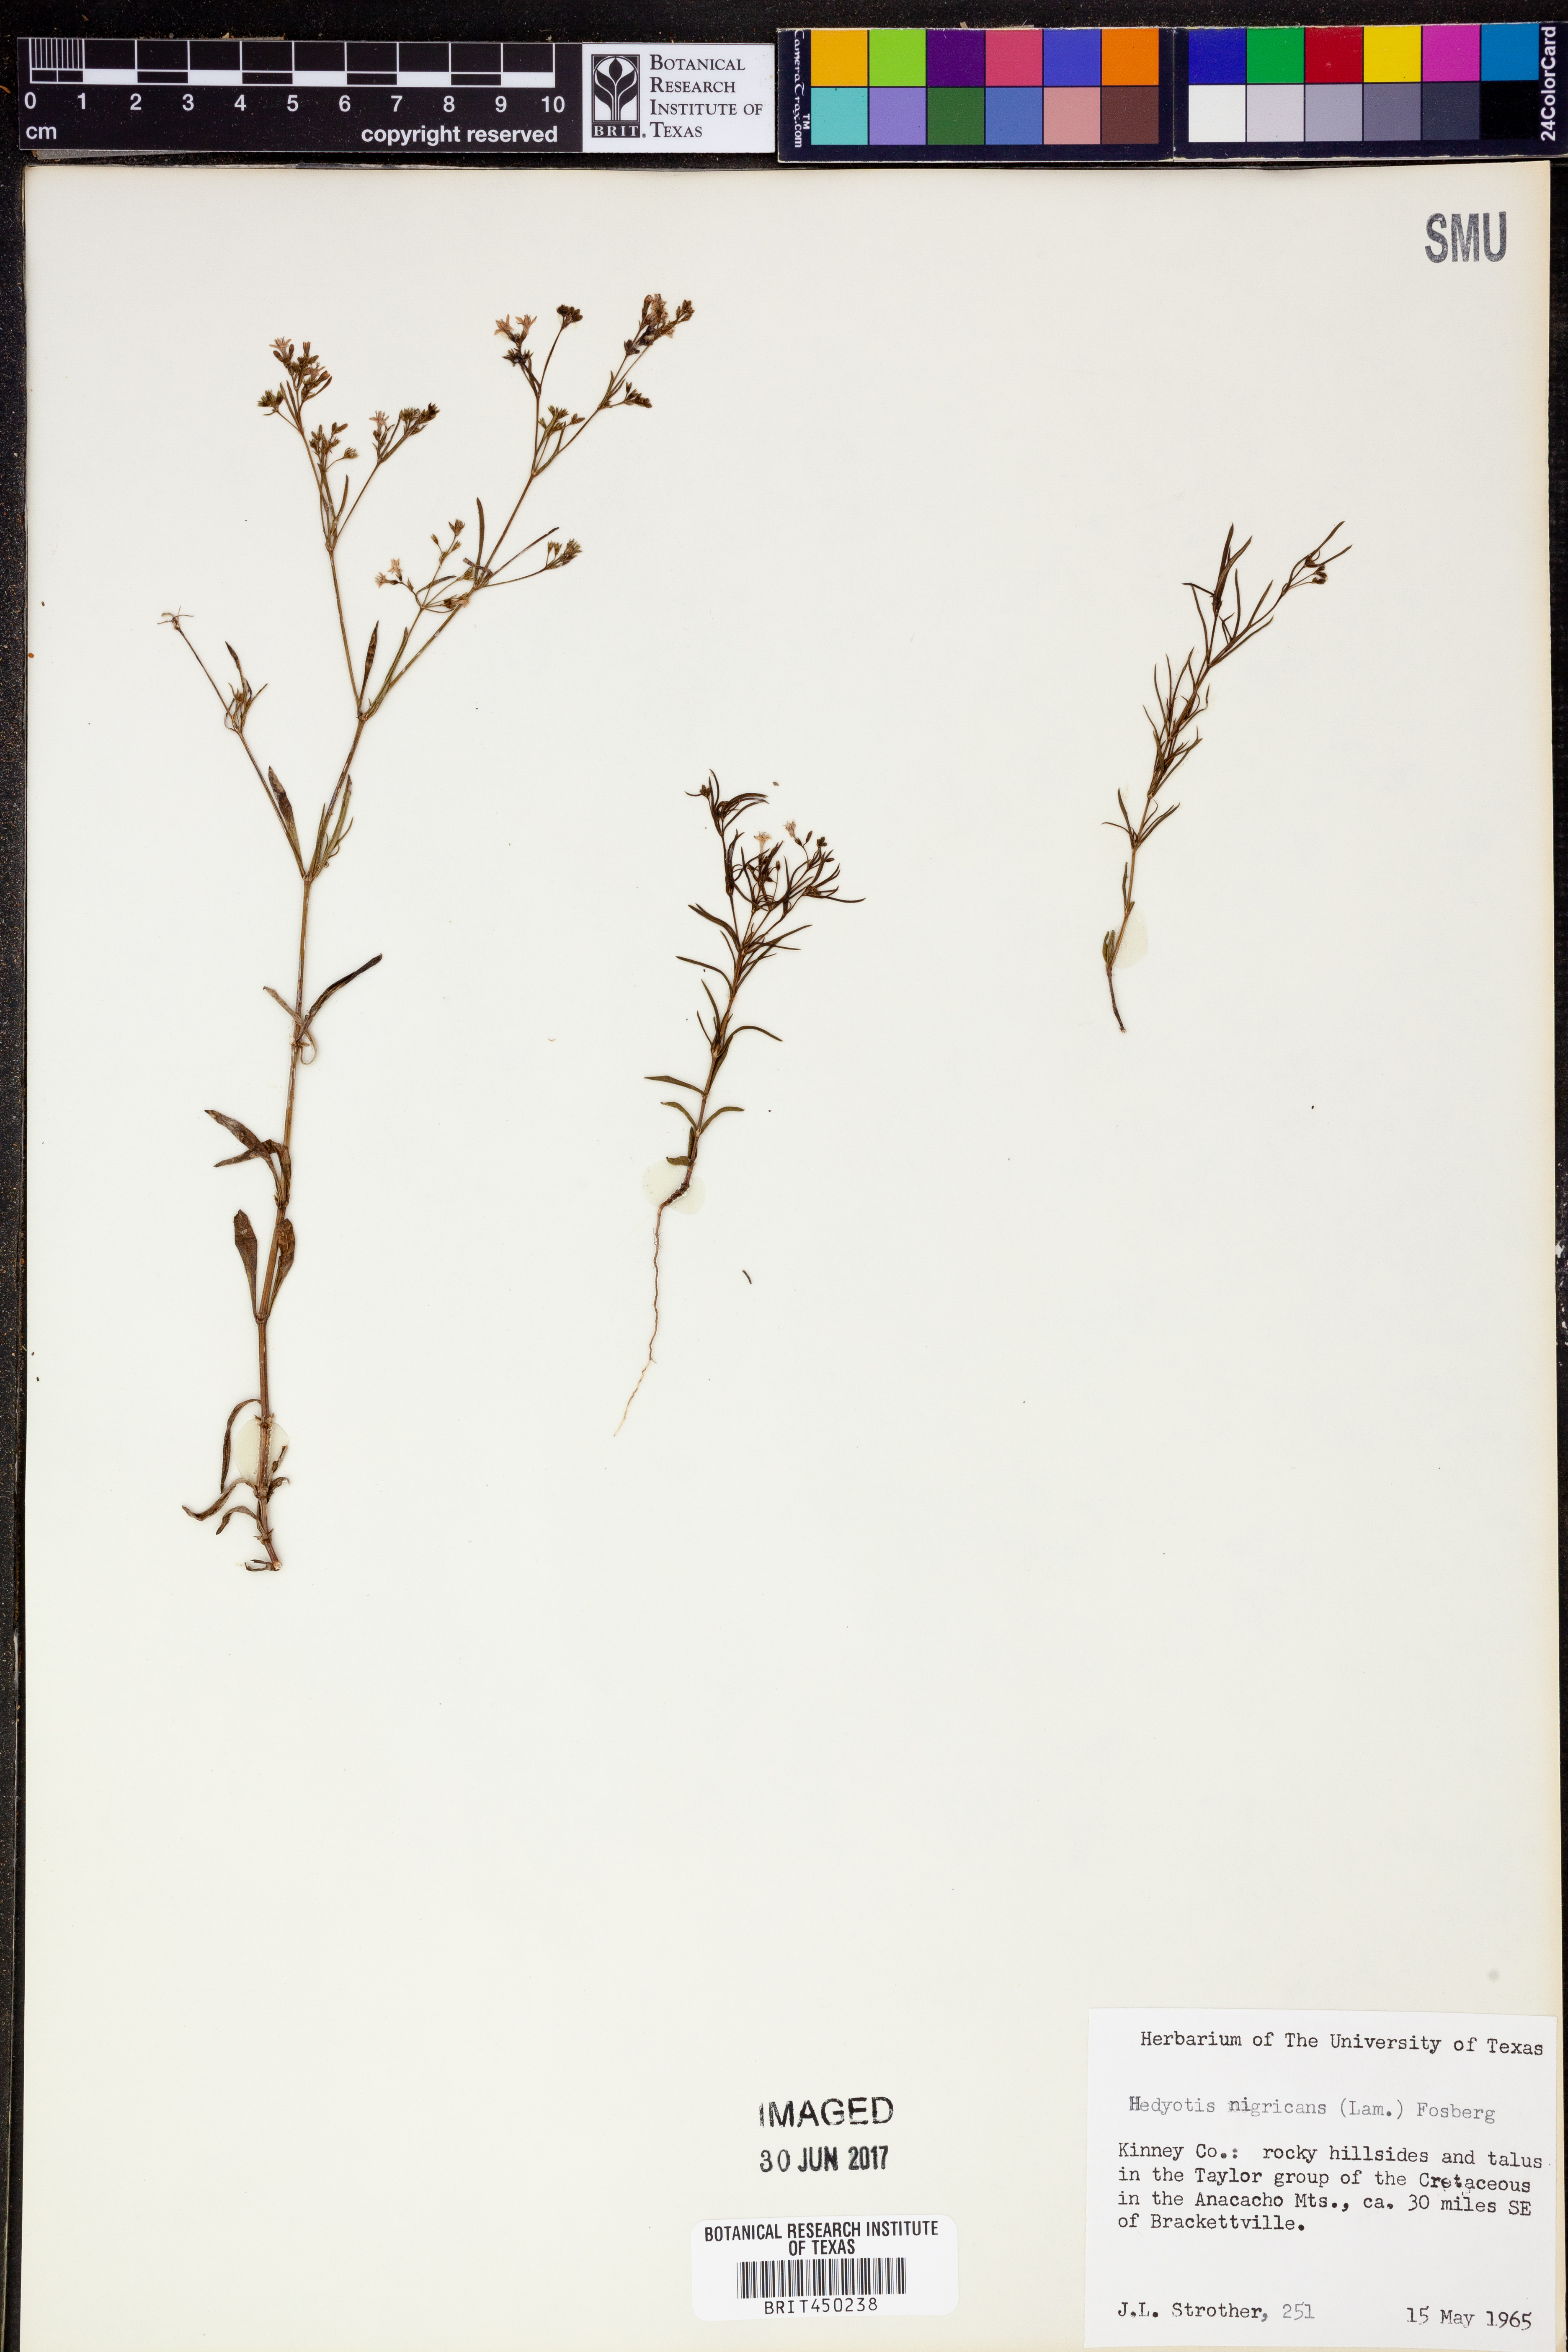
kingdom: Plantae
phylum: Tracheophyta
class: Magnoliopsida
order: Gentianales
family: Rubiaceae
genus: Stenaria
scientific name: Stenaria nigricans
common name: Diamondflowers
